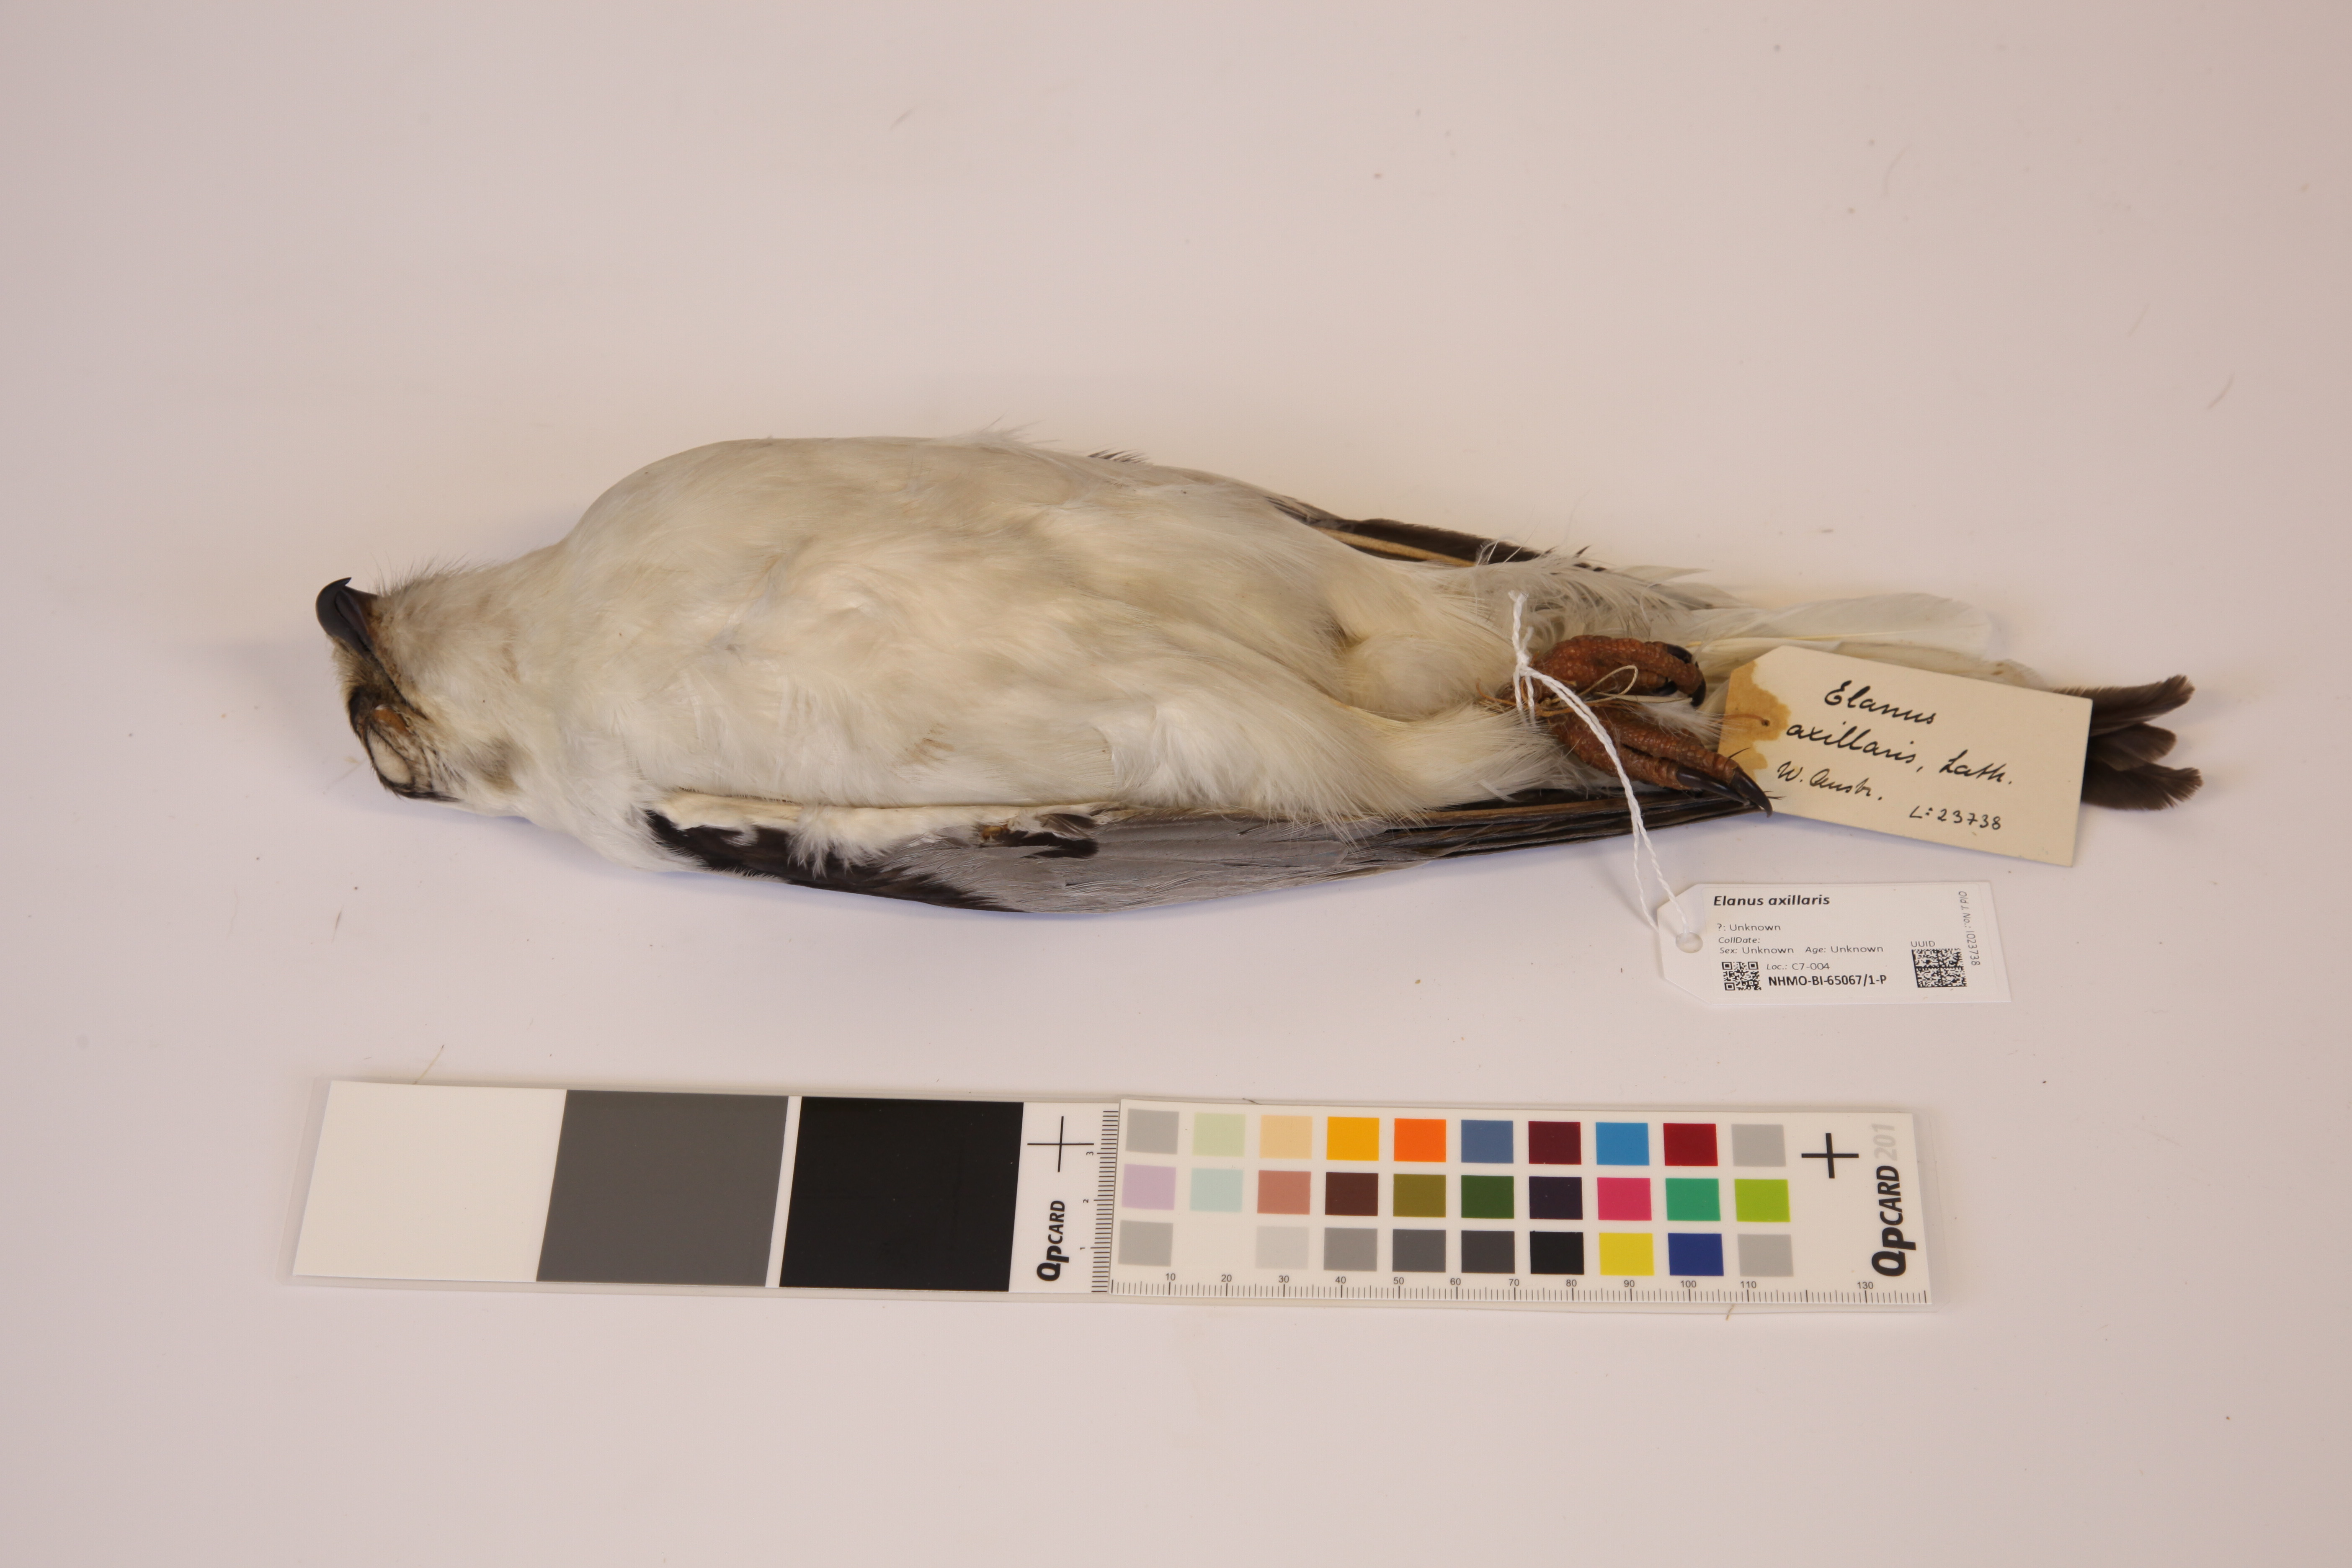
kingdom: Animalia
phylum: Chordata
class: Aves
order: Accipitriformes
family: Accipitridae
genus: Elanus
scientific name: Elanus axillaris
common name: Black-shouldered kite
